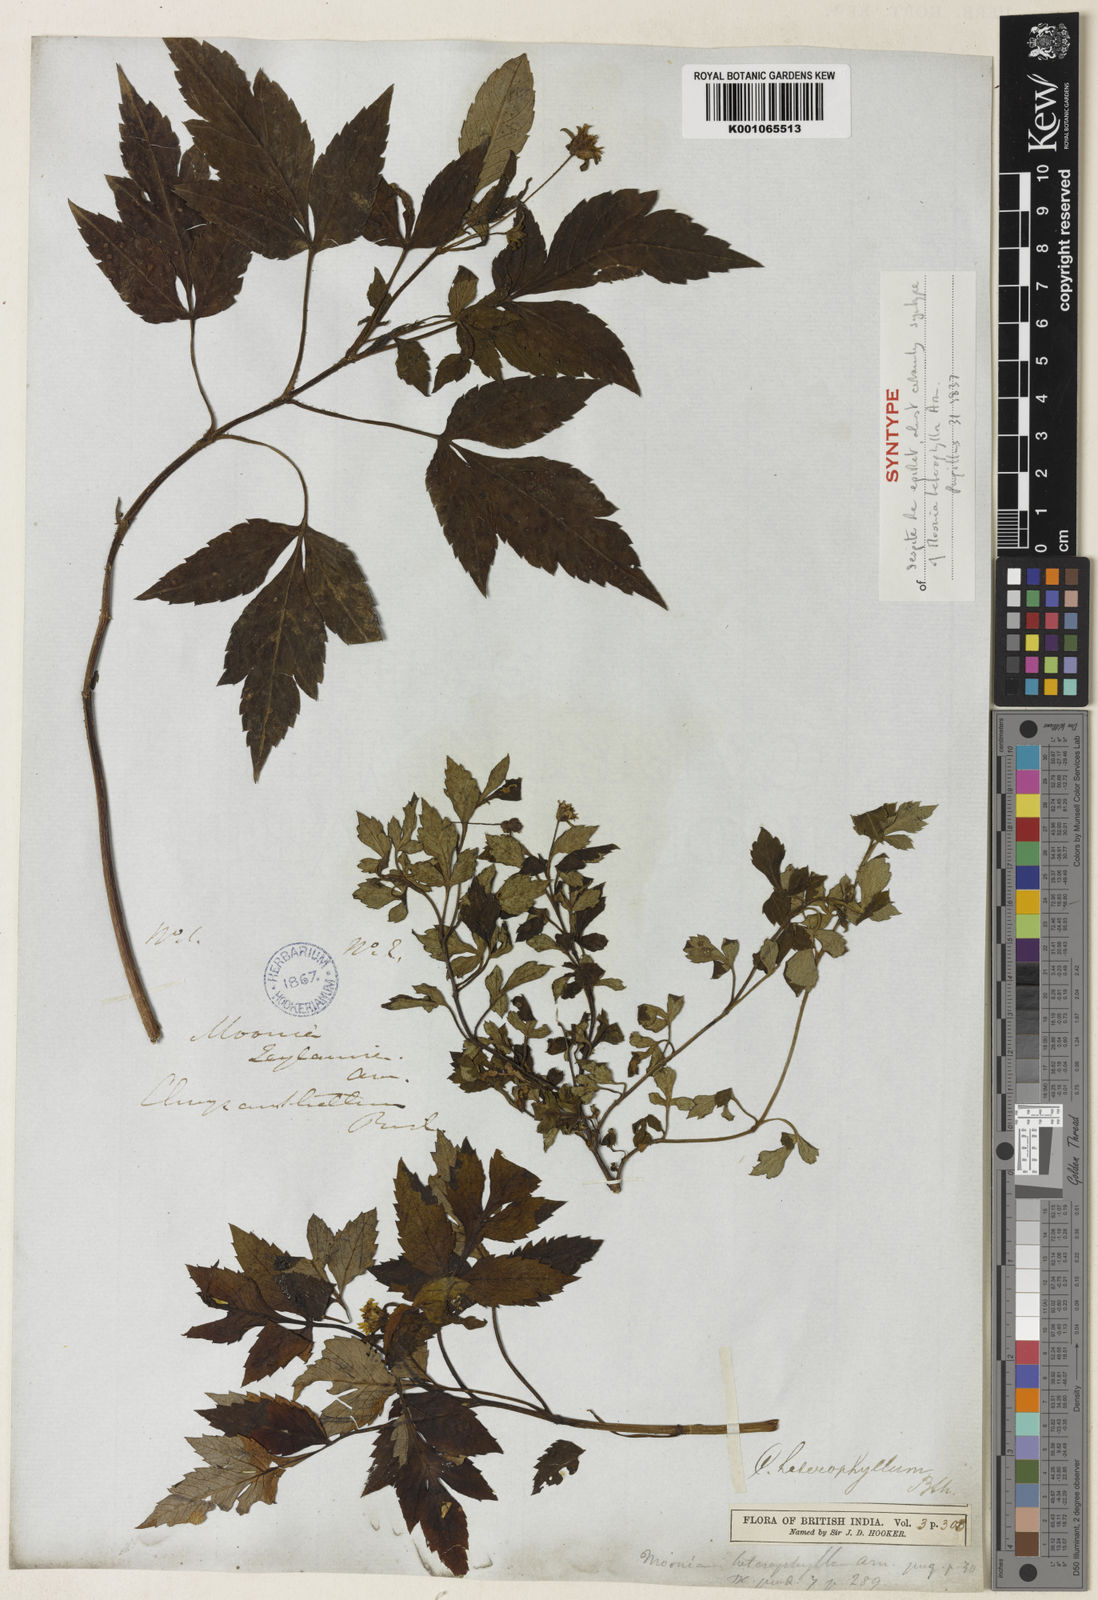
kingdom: Plantae
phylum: Tracheophyta
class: Magnoliopsida
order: Asterales
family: Asteraceae
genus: Moonia
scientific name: Moonia heterophylla
